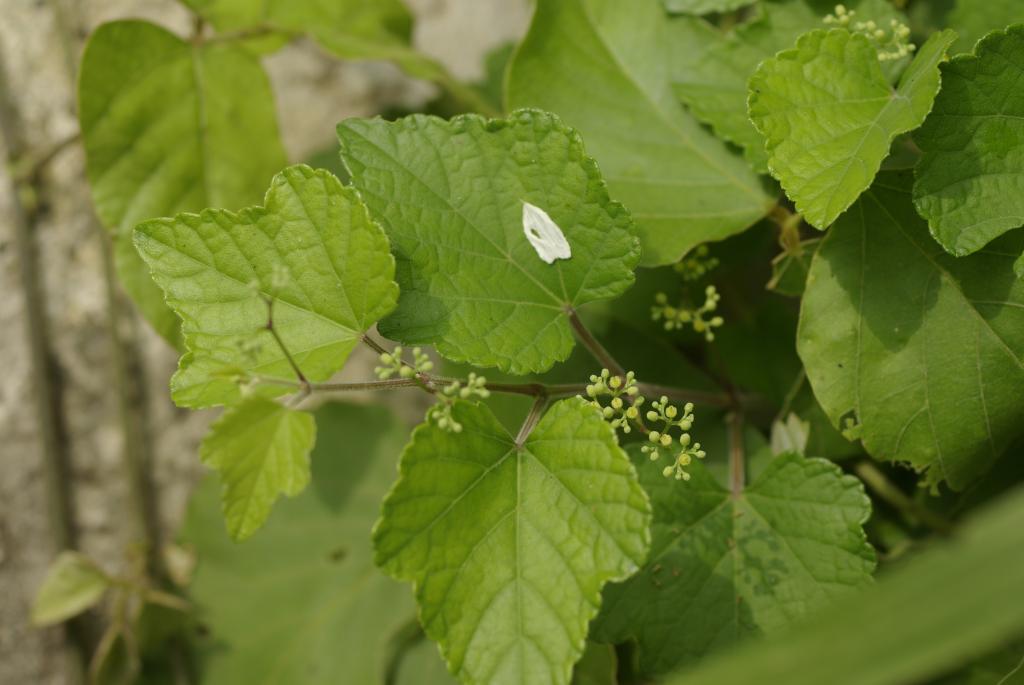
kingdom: Plantae
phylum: Tracheophyta
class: Magnoliopsida
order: Vitales
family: Vitaceae
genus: Ampelopsis
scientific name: Ampelopsis glandulosa
